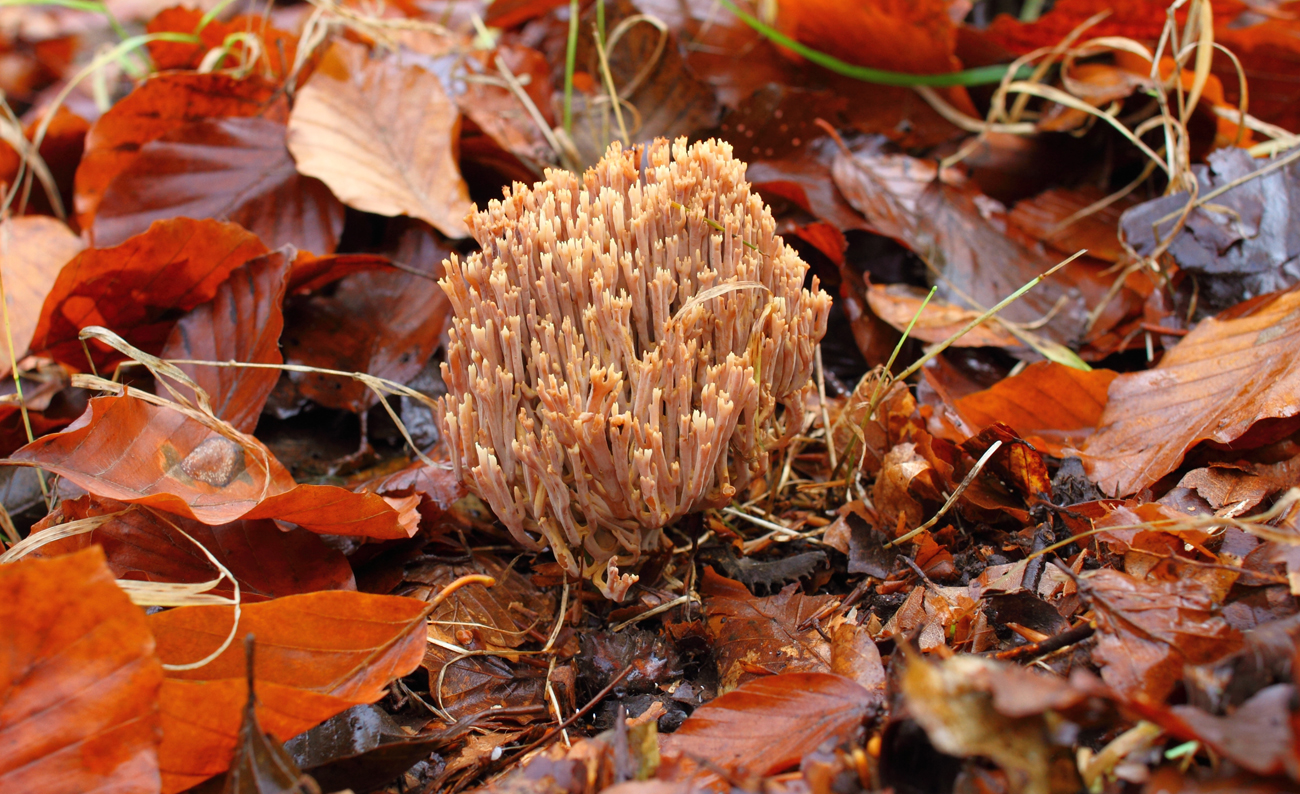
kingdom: Fungi
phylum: Basidiomycota
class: Agaricomycetes
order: Gomphales
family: Gomphaceae
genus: Ramaria
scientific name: Ramaria stricta
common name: rank koralsvamp
